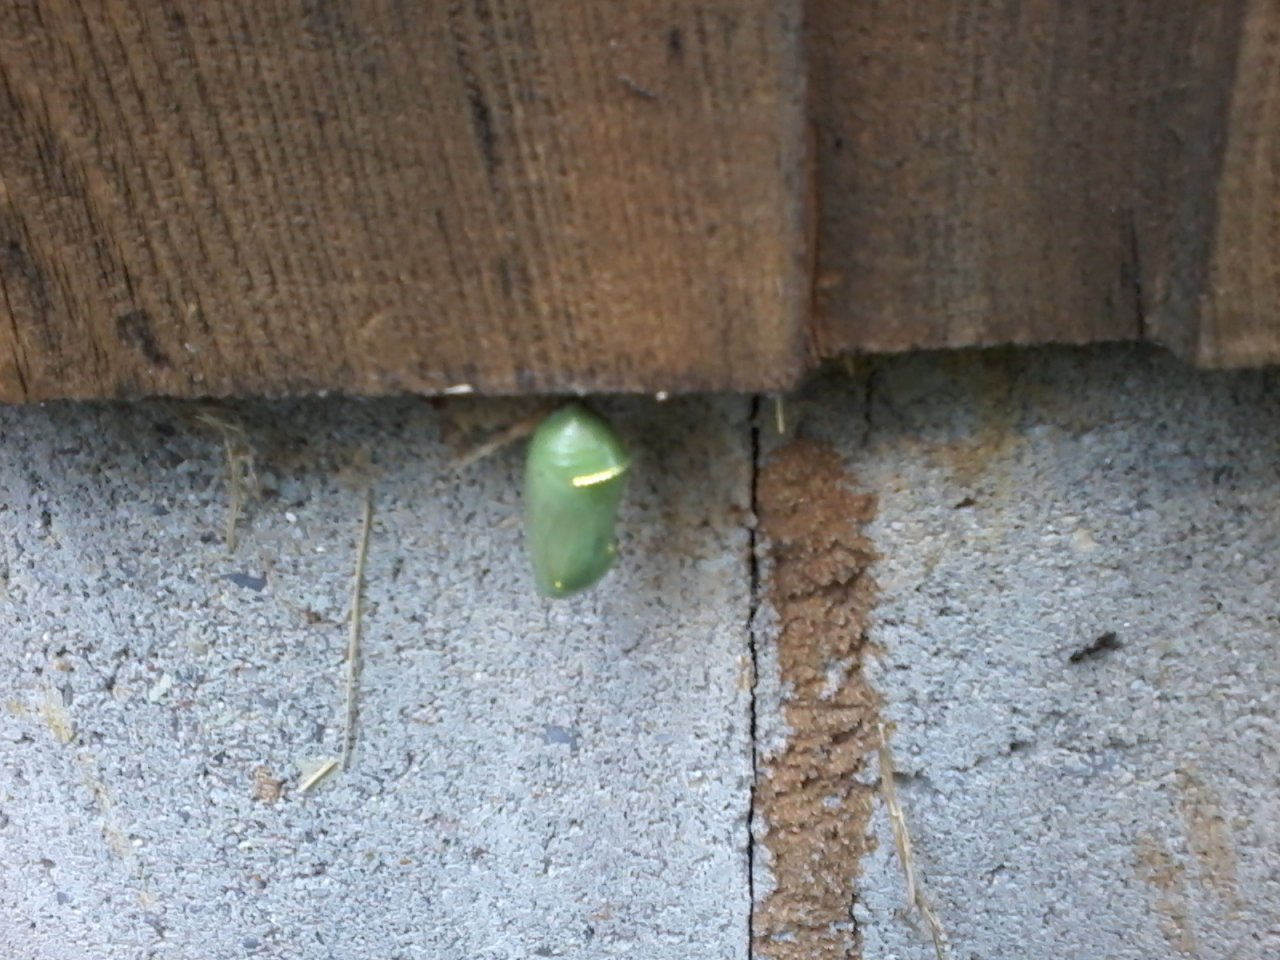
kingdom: Animalia
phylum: Arthropoda
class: Insecta
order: Lepidoptera
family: Nymphalidae
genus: Danaus
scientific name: Danaus plexippus
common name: Monarch
